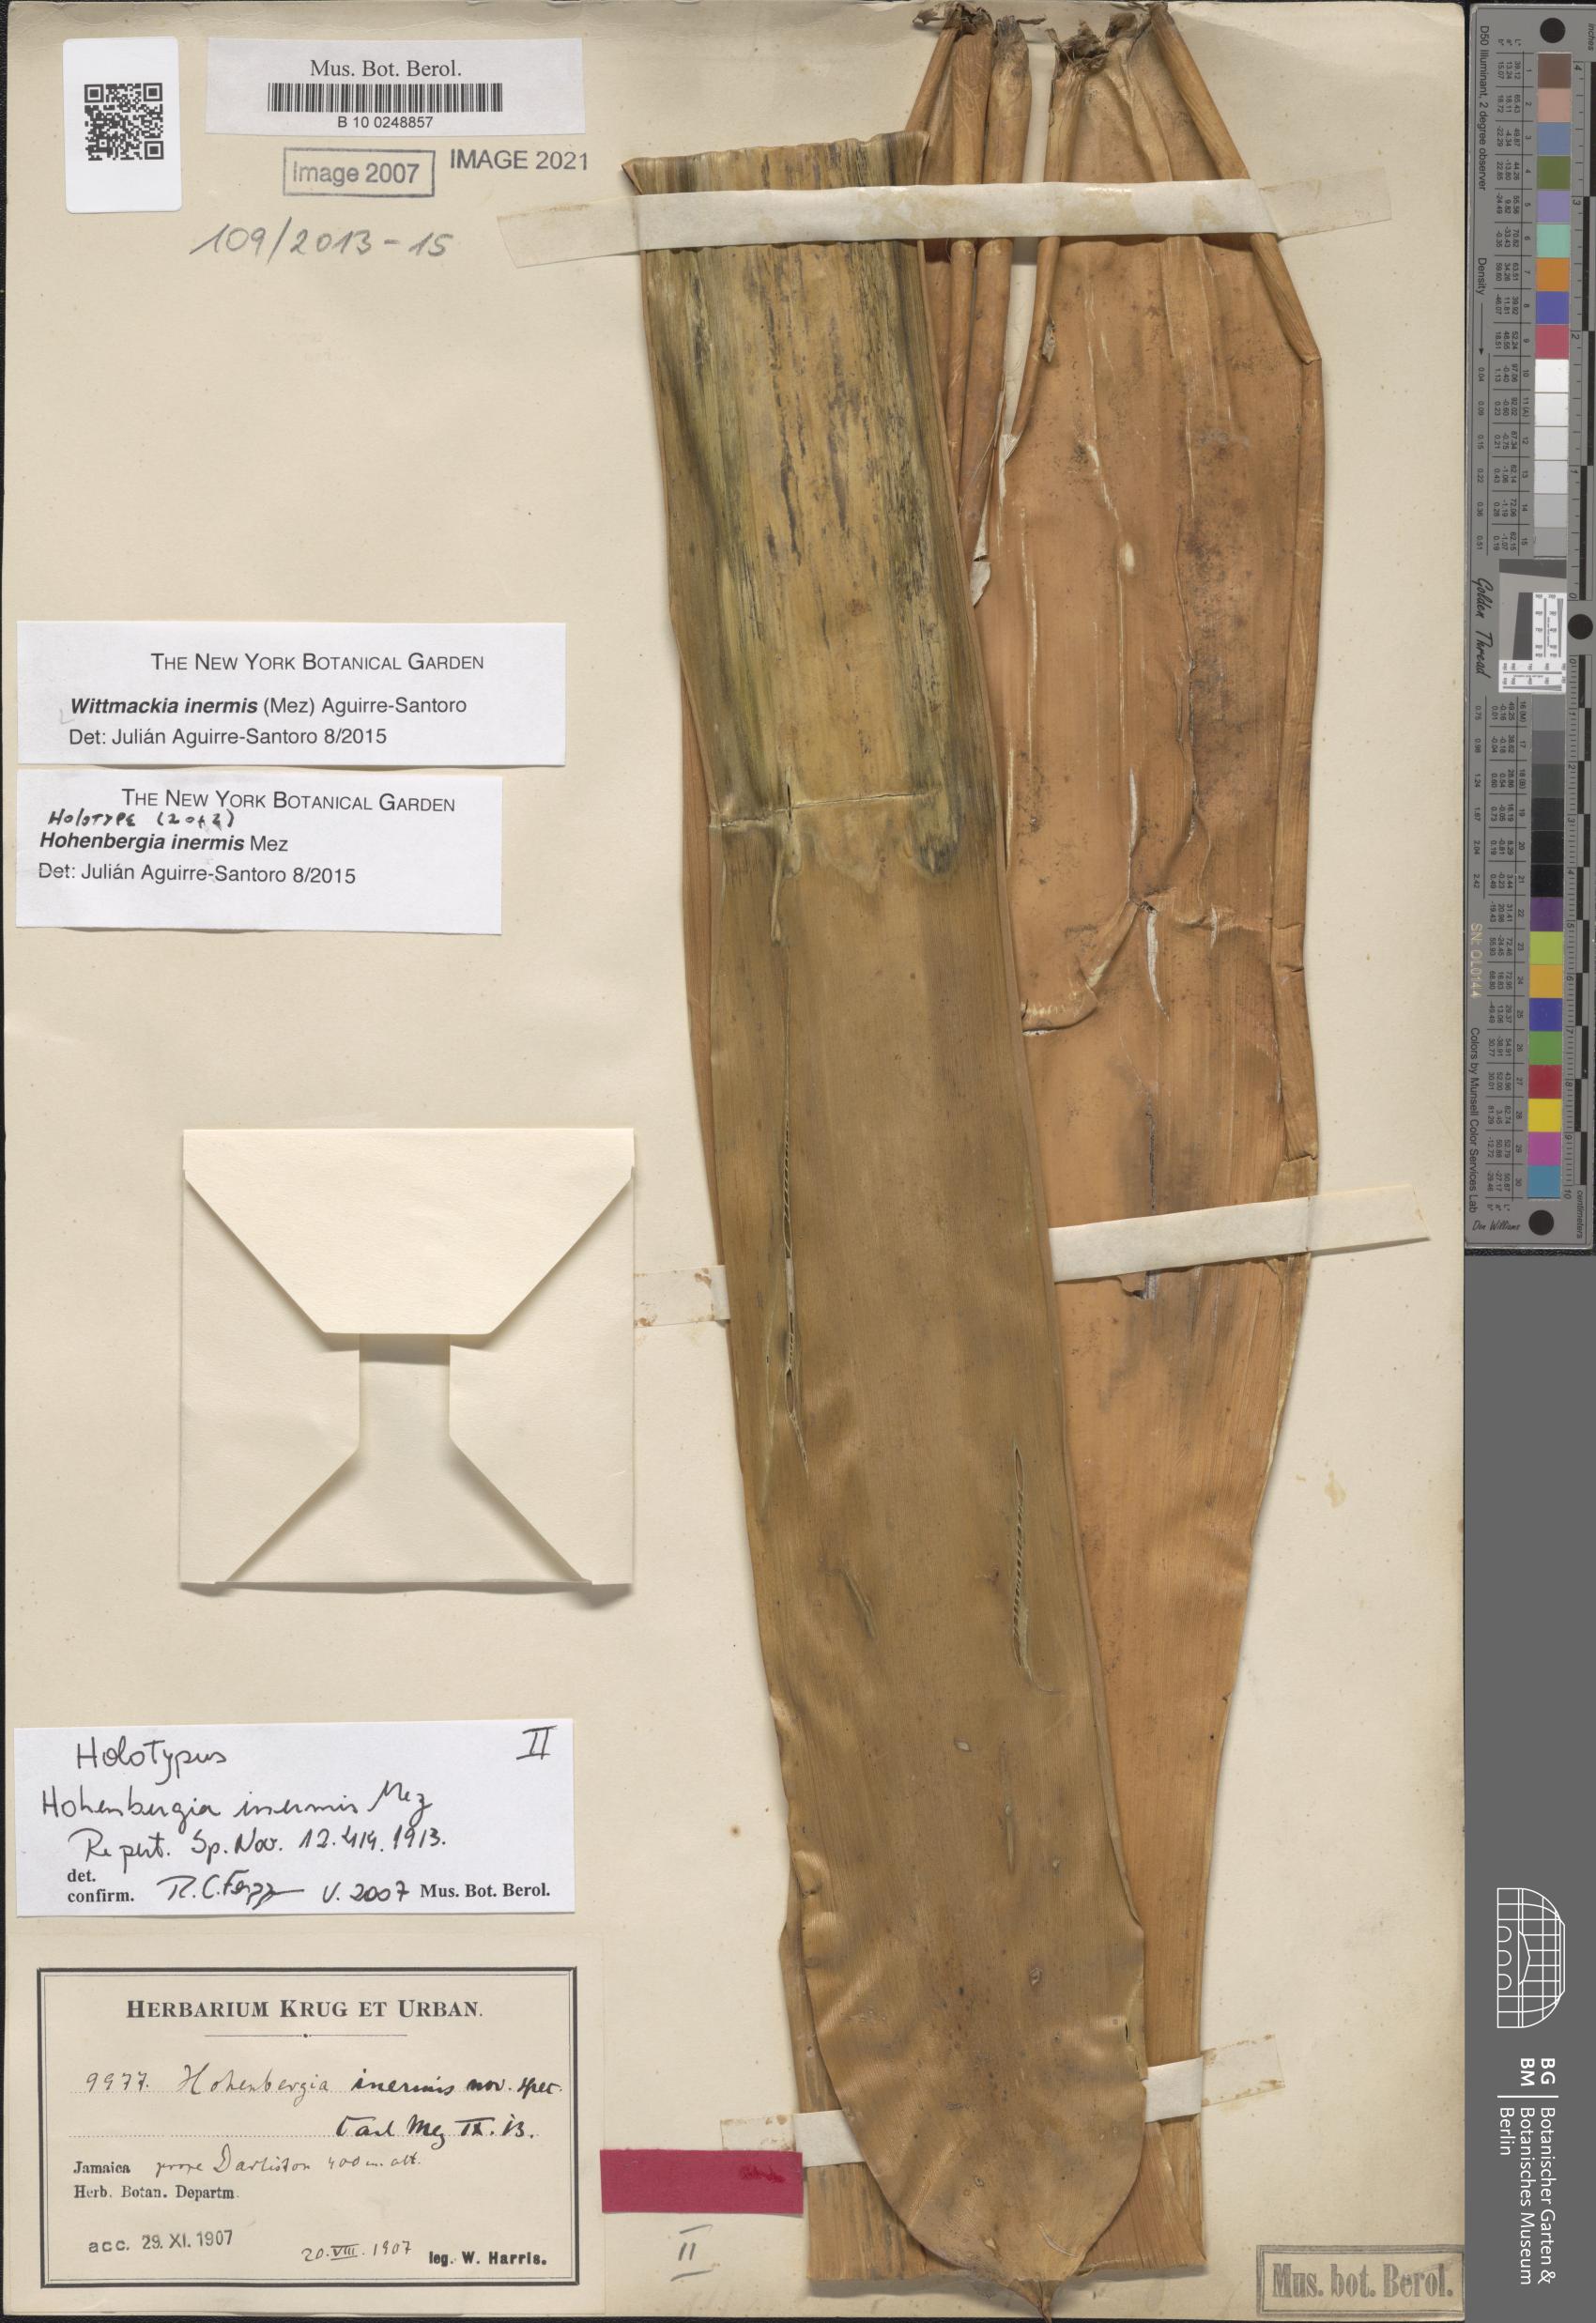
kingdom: Plantae
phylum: Tracheophyta
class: Liliopsida
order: Poales
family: Bromeliaceae
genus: Wittmackia
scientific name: Wittmackia inermis
